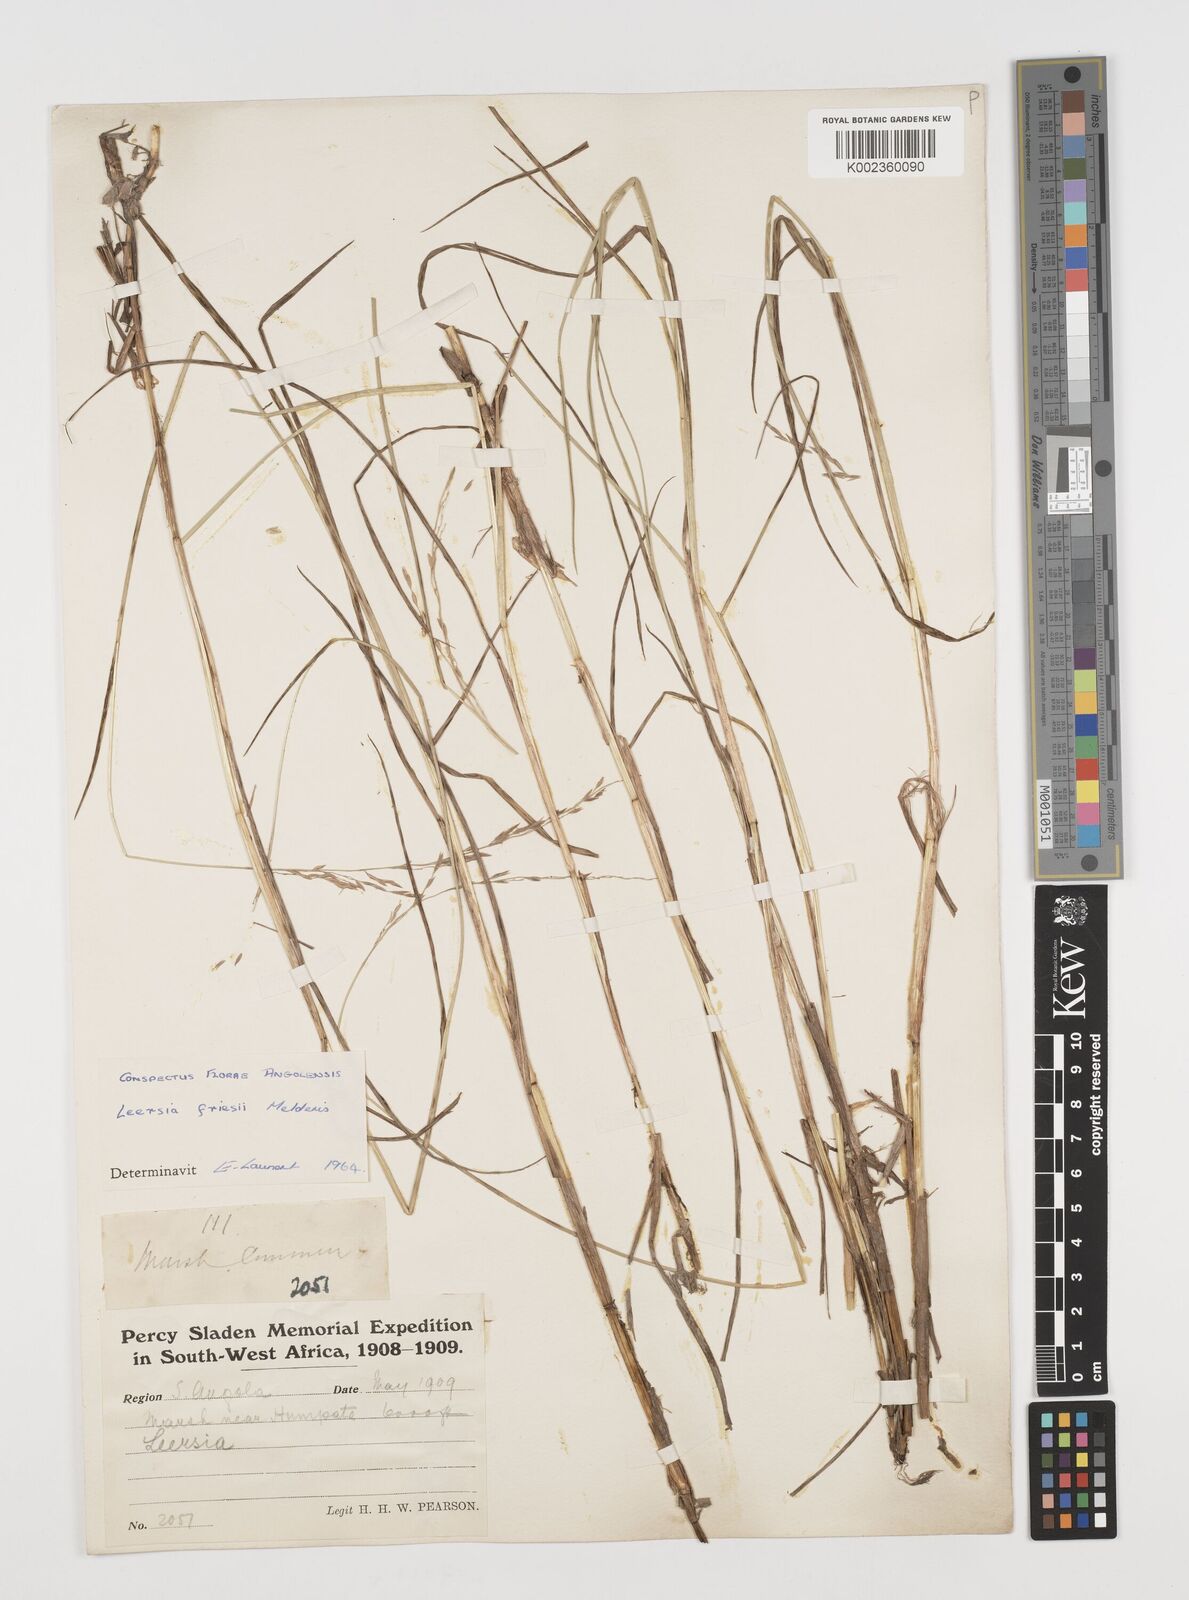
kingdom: Plantae
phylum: Tracheophyta
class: Liliopsida
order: Poales
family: Poaceae
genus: Leersia
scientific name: Leersia friesii
